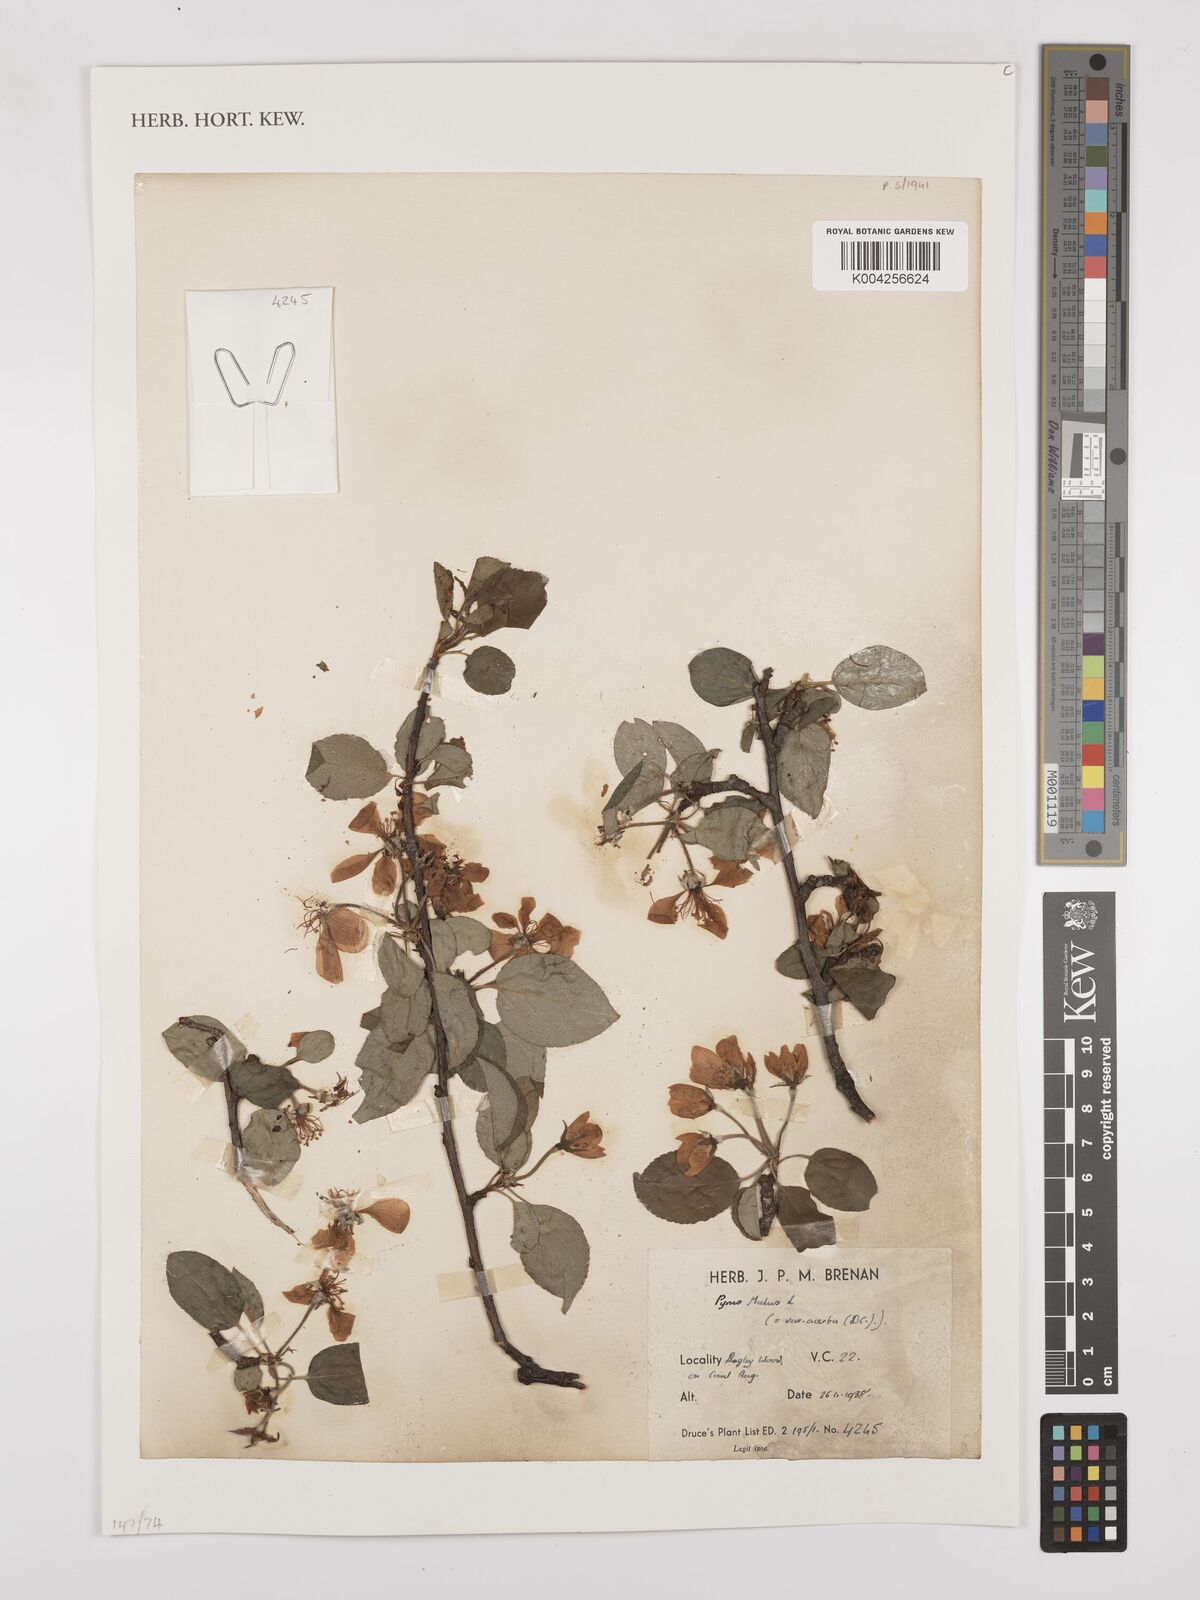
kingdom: Plantae
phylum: Tracheophyta
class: Magnoliopsida
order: Rosales
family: Rosaceae
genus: Malus
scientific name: Malus sylvestris
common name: Crab apple
